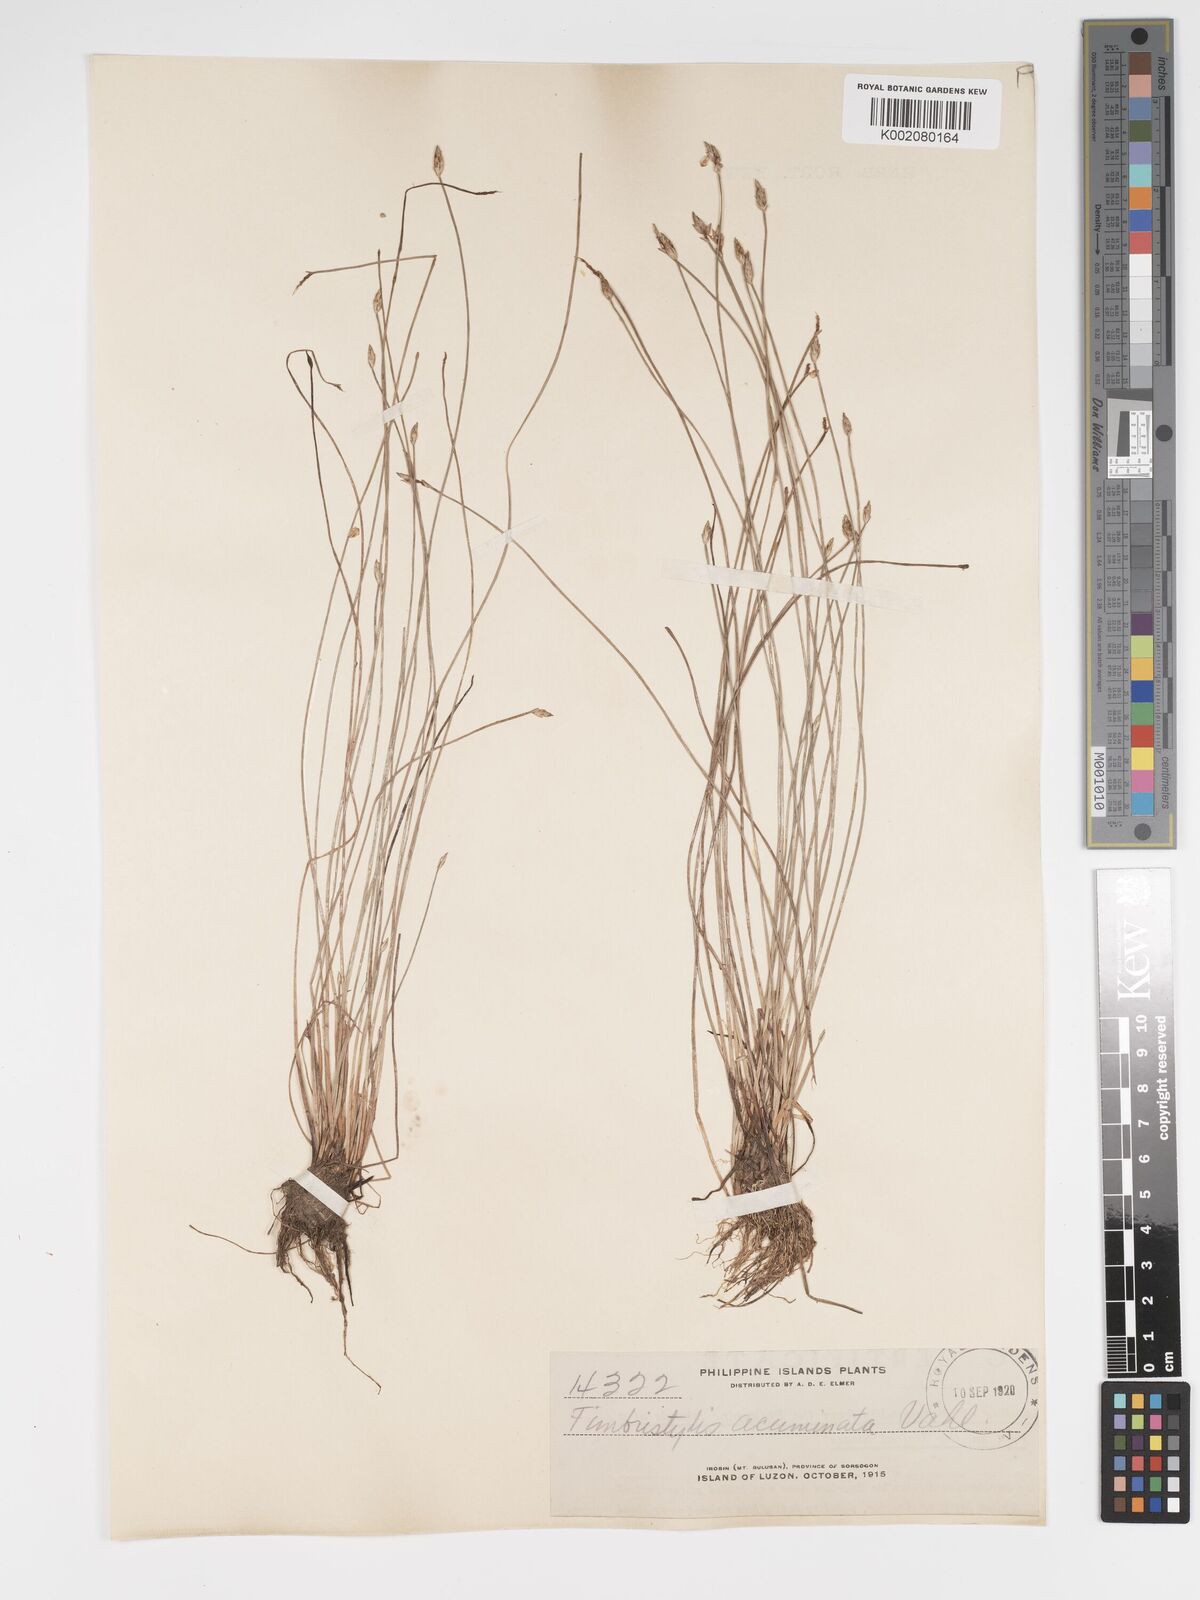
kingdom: Plantae
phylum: Tracheophyta
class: Liliopsida
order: Poales
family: Cyperaceae
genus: Fimbristylis
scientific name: Fimbristylis acuminata
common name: Pointed fimbristylis
